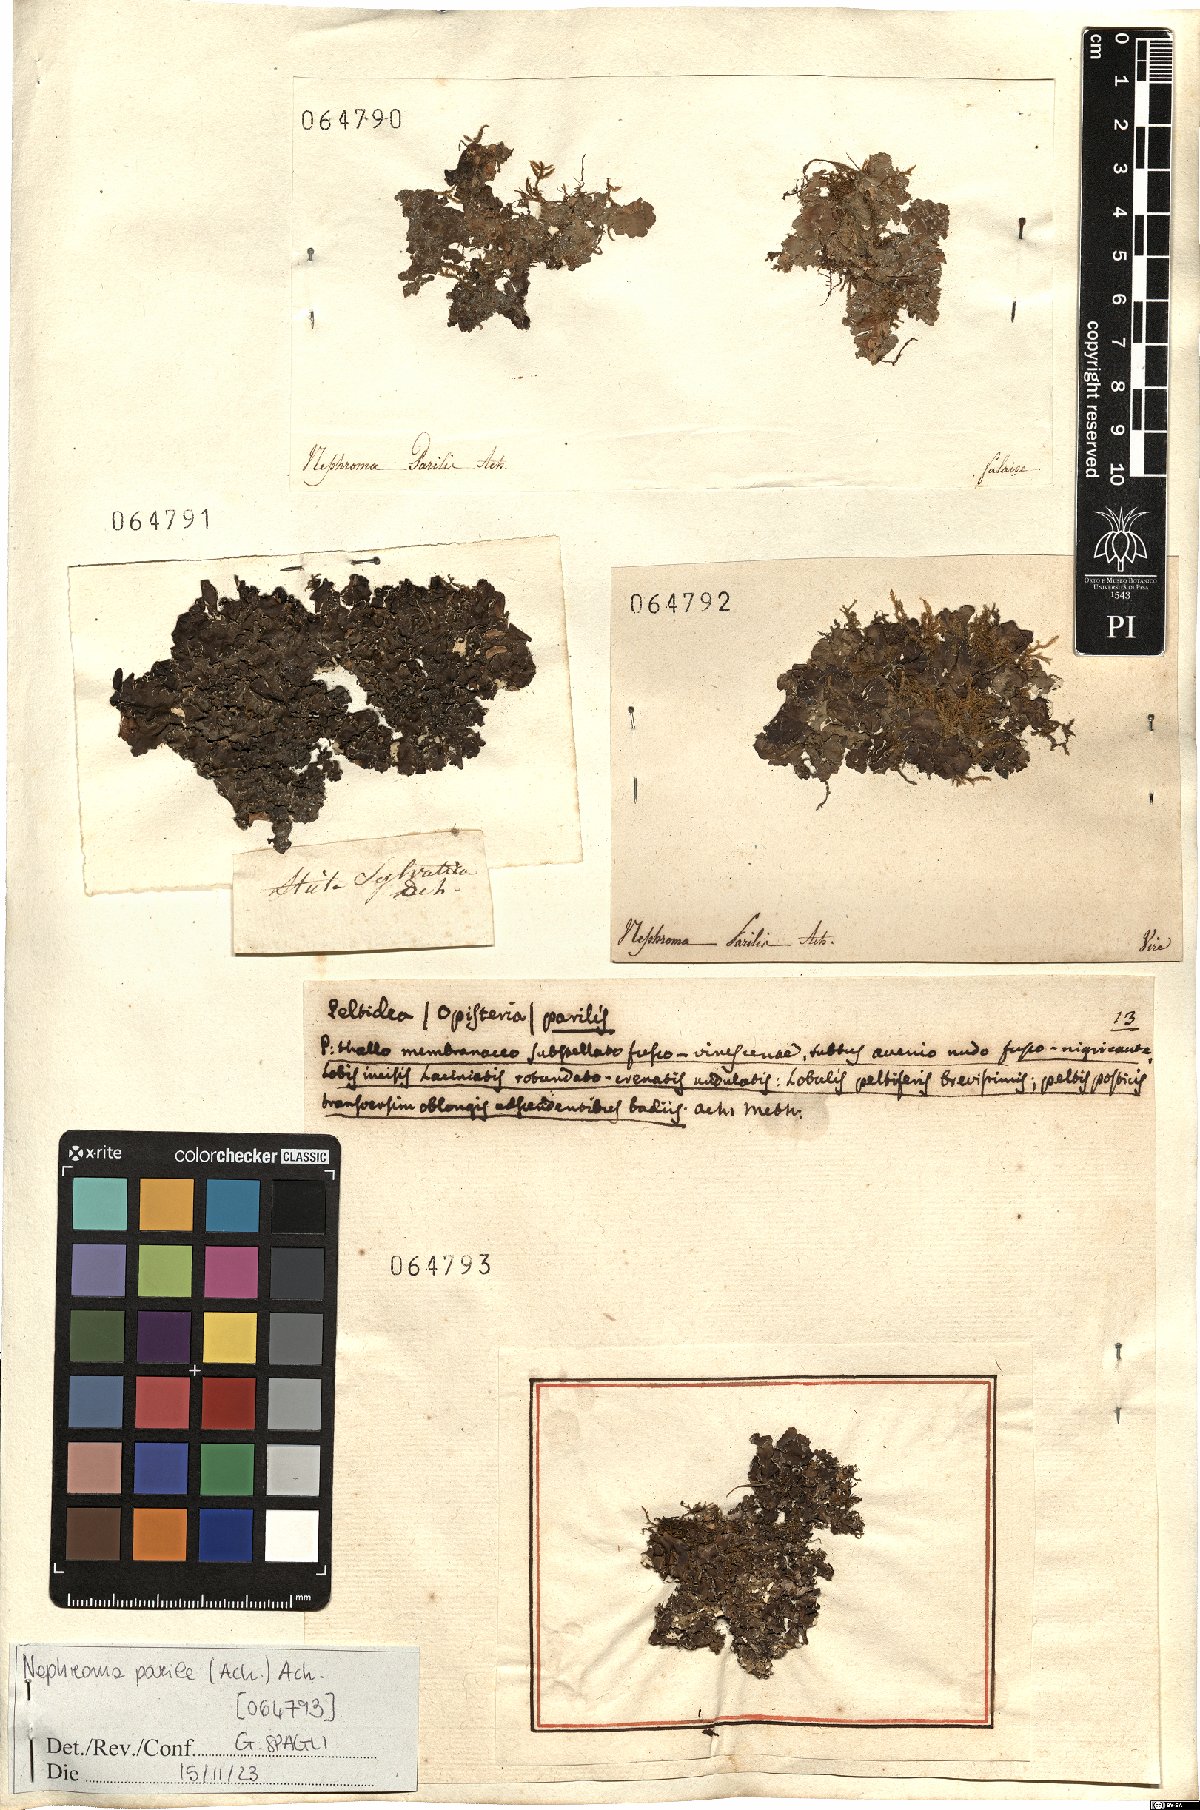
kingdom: Fungi
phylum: Ascomycota
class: Lecanoromycetes
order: Peltigerales
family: Nephromataceae
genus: Nephroma
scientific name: Nephroma parile
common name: Powdery kidney lichen
